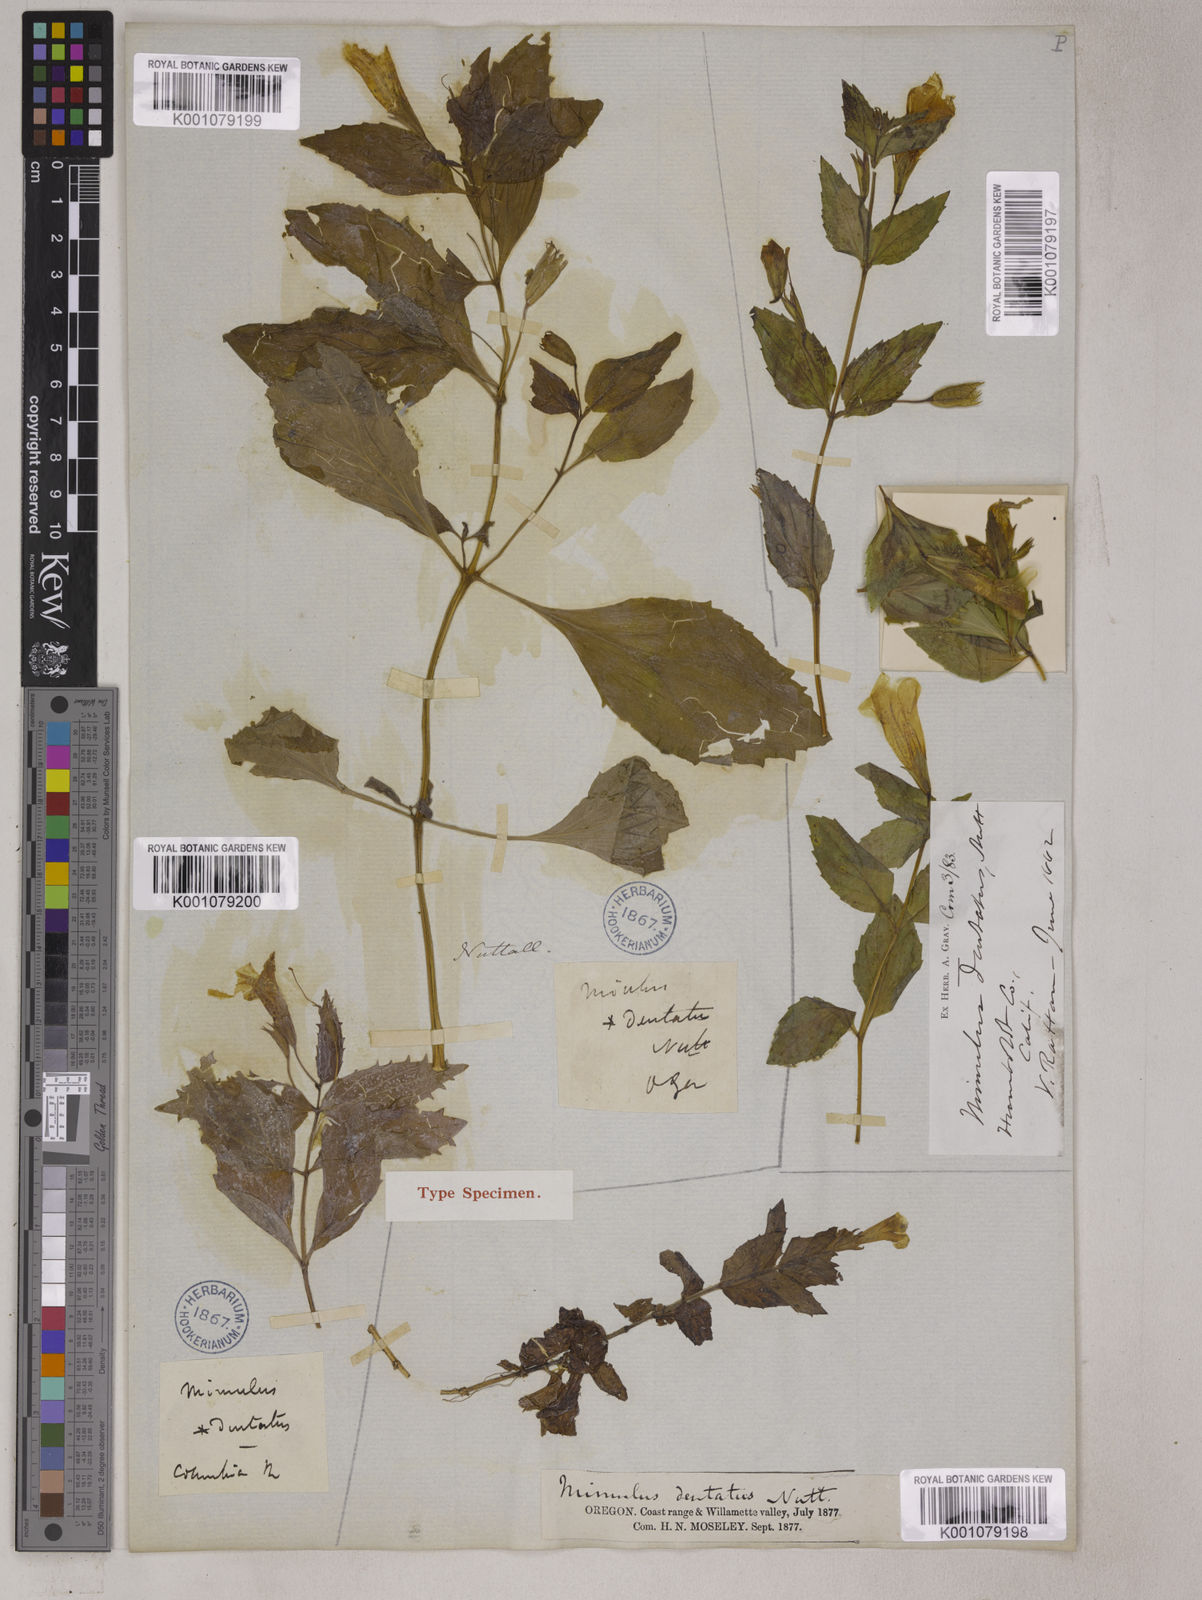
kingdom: Plantae
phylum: Tracheophyta
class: Magnoliopsida
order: Lamiales
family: Phrymaceae
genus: Erythranthe
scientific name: Erythranthe dentata
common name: Coastal monkeyflower
